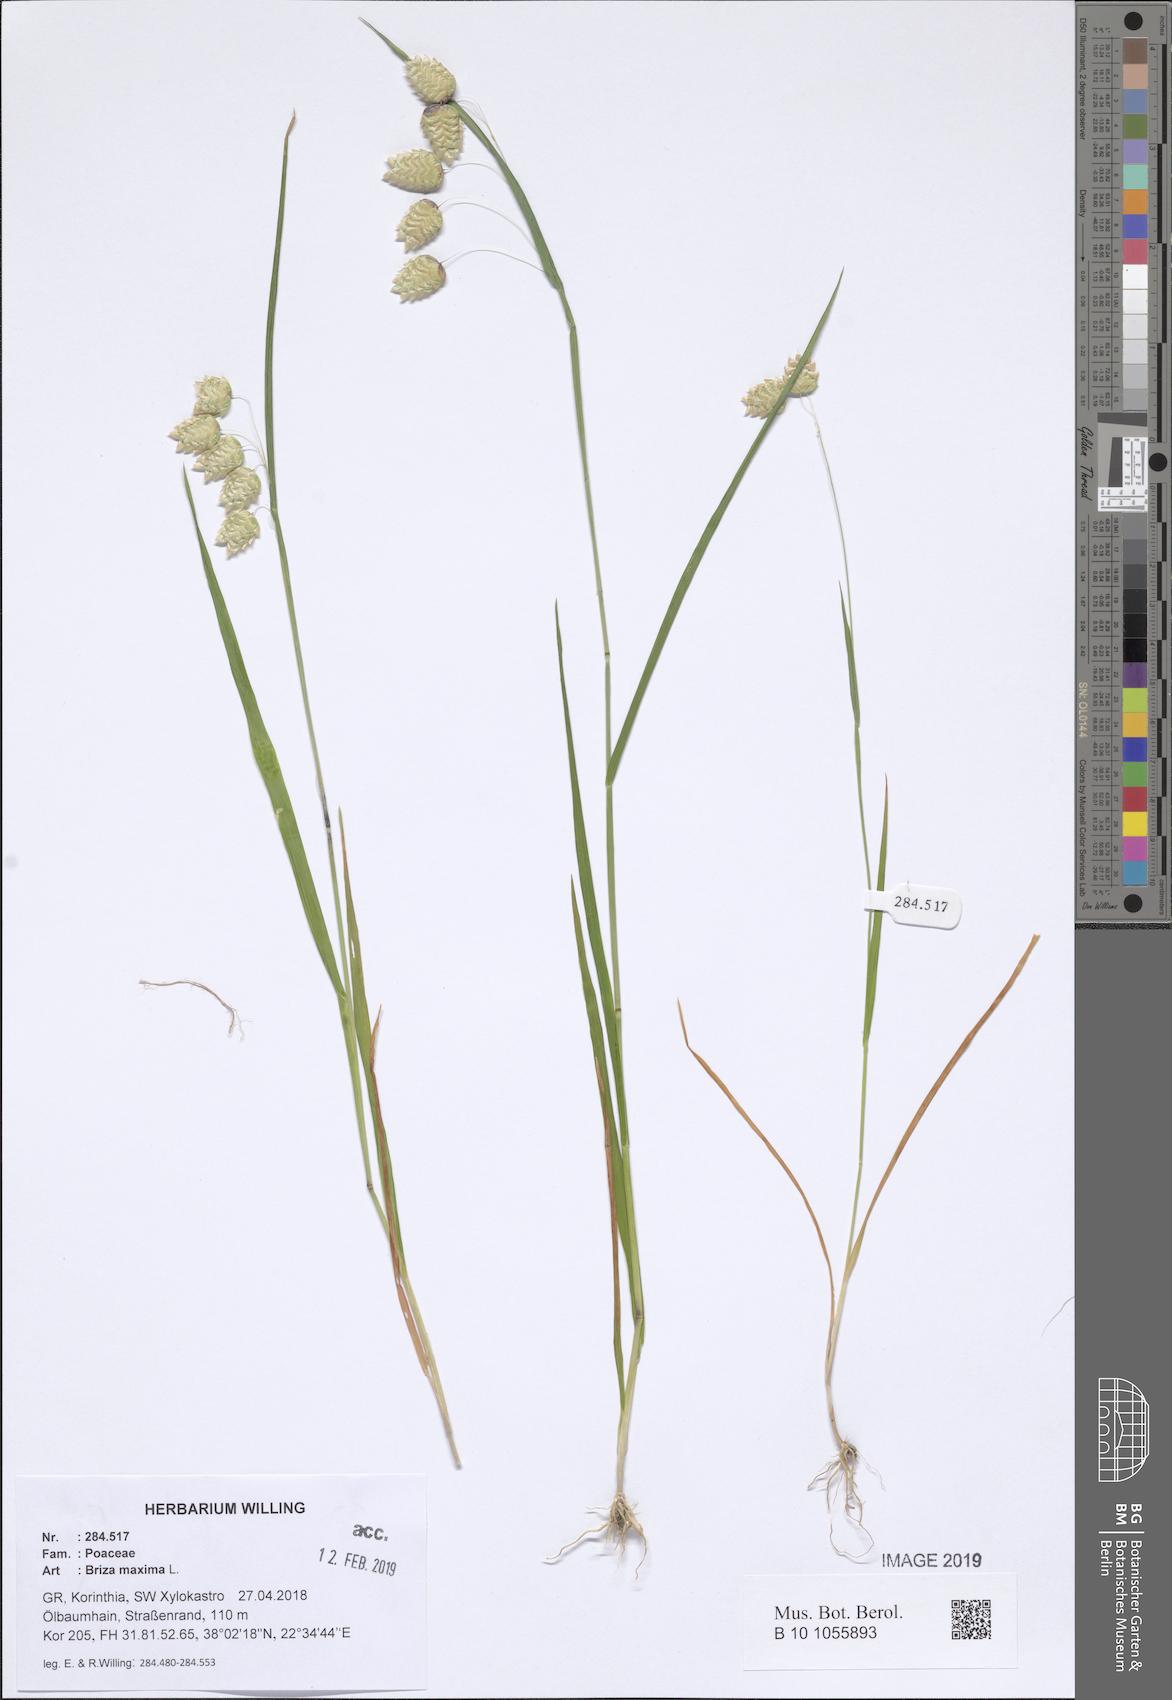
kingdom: Plantae
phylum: Tracheophyta
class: Liliopsida
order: Poales
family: Poaceae
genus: Briza
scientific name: Briza maxima
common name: Big quakinggrass
